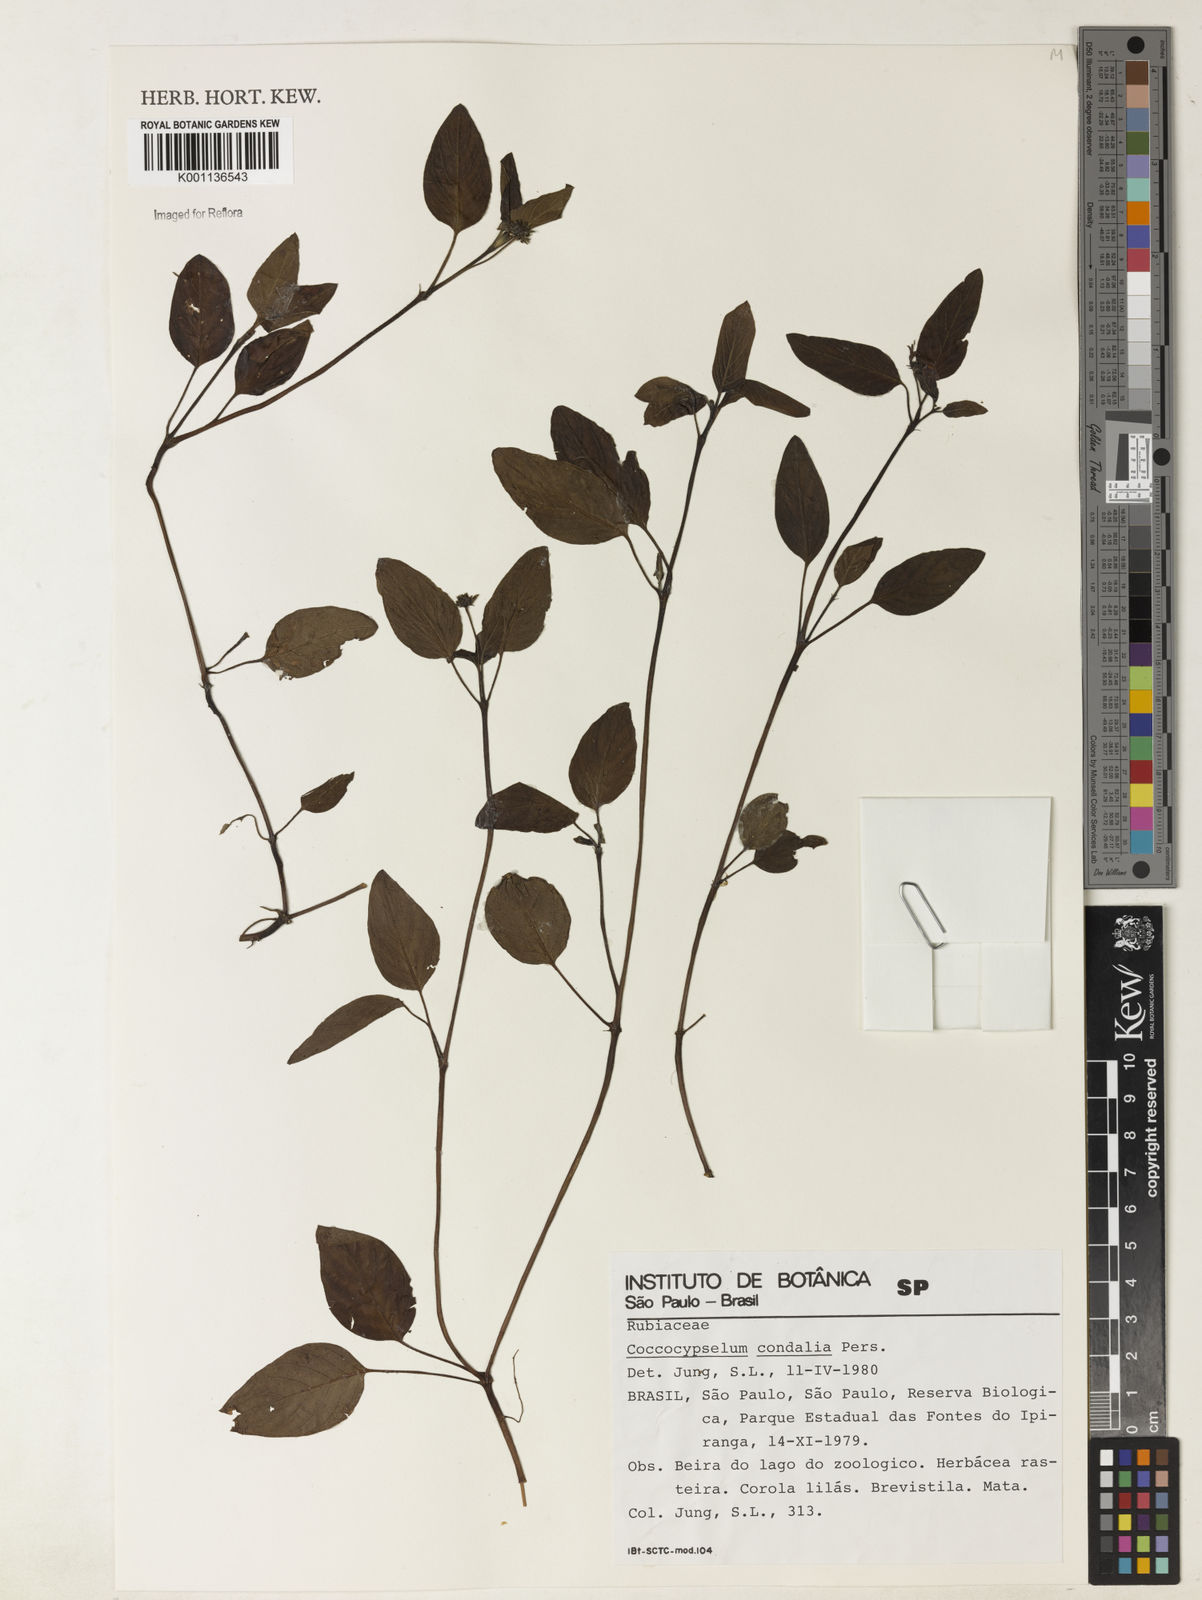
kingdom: Plantae
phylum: Tracheophyta
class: Magnoliopsida
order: Gentianales
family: Rubiaceae
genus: Coccocypselum
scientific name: Coccocypselum condalia
